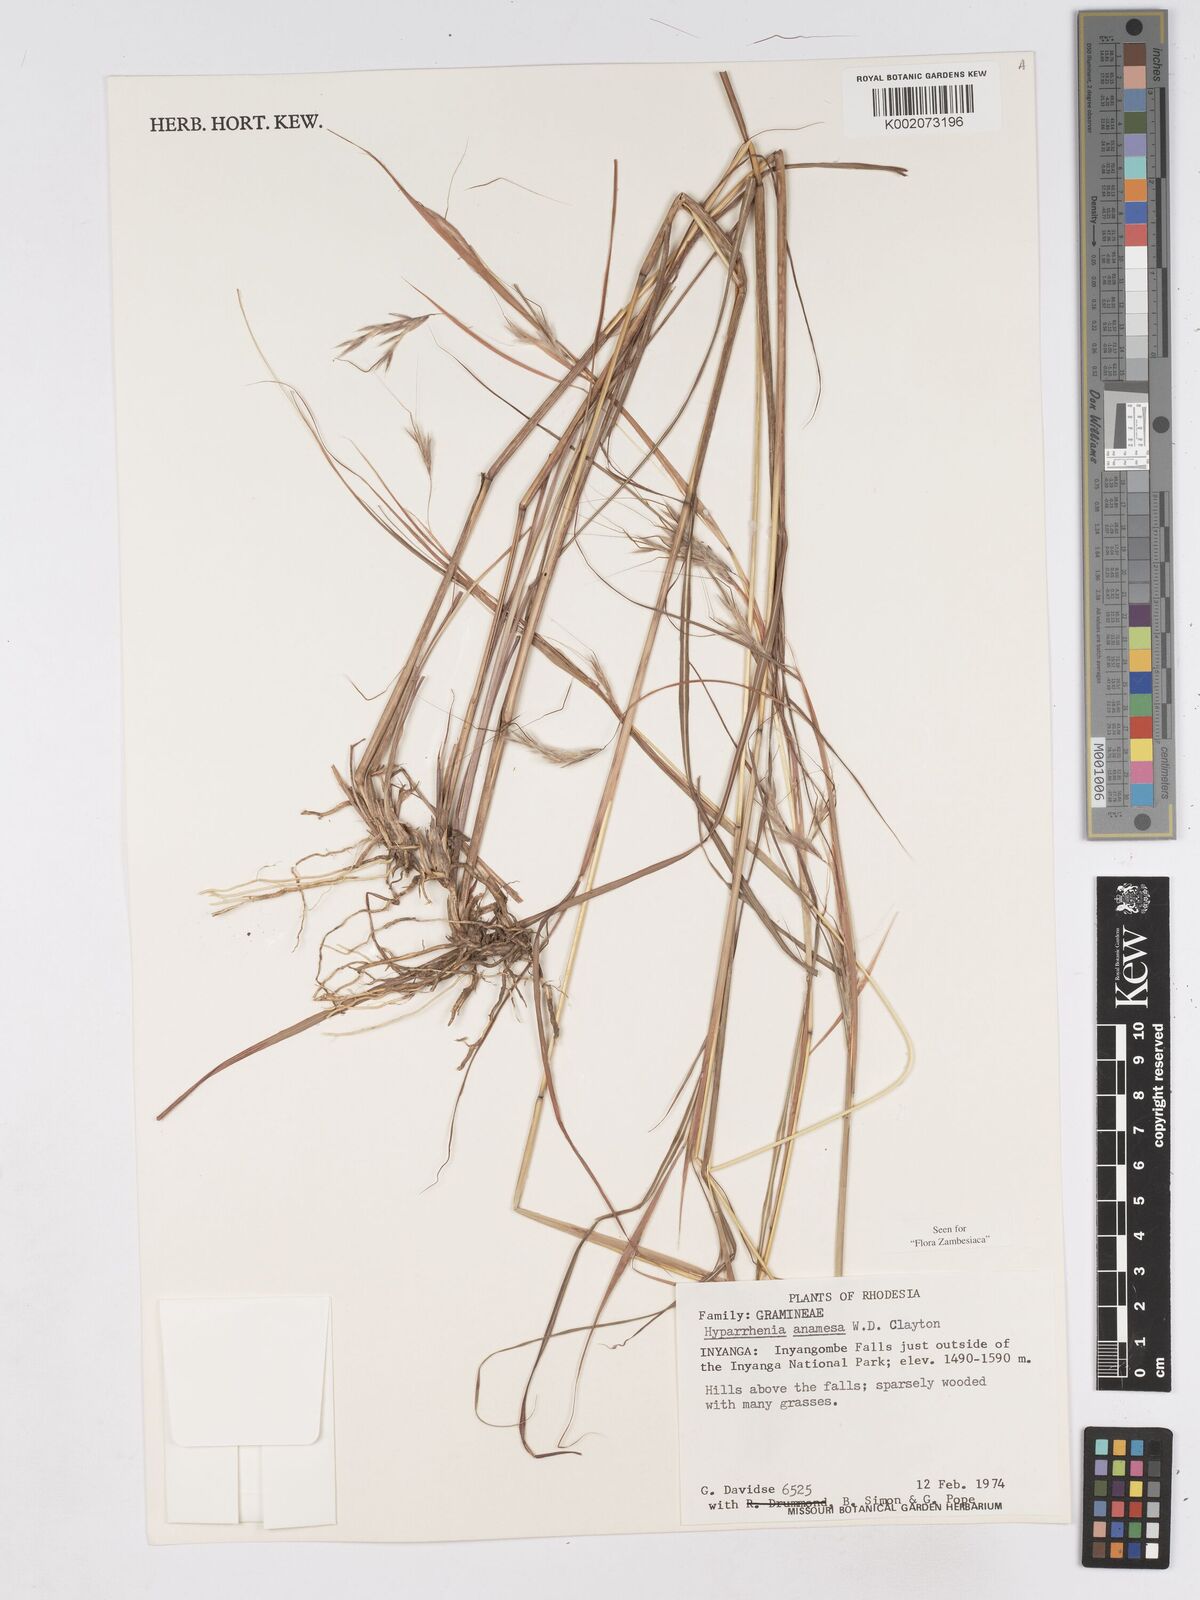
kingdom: Plantae
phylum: Tracheophyta
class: Liliopsida
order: Poales
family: Poaceae
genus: Hyparrhenia
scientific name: Hyparrhenia anamesa
